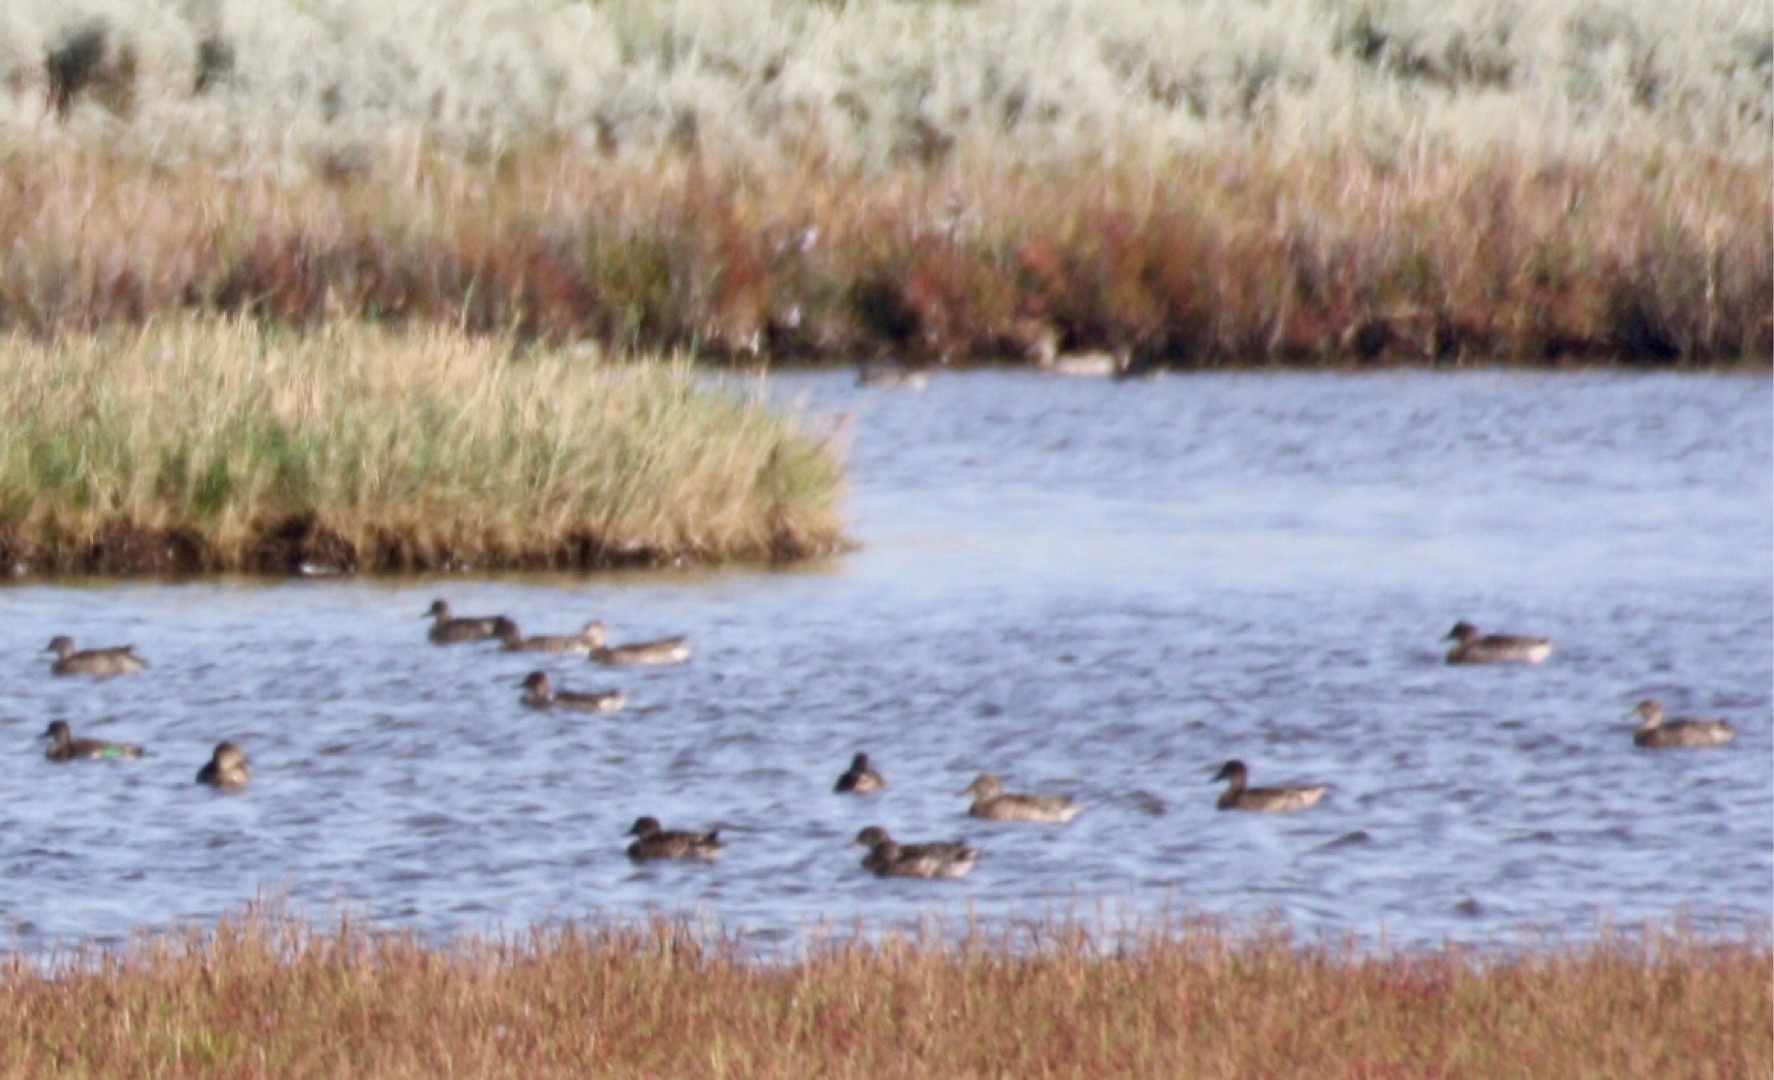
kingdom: Animalia
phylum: Chordata
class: Aves
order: Anseriformes
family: Anatidae
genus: Anas
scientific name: Anas crecca
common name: Krikand
